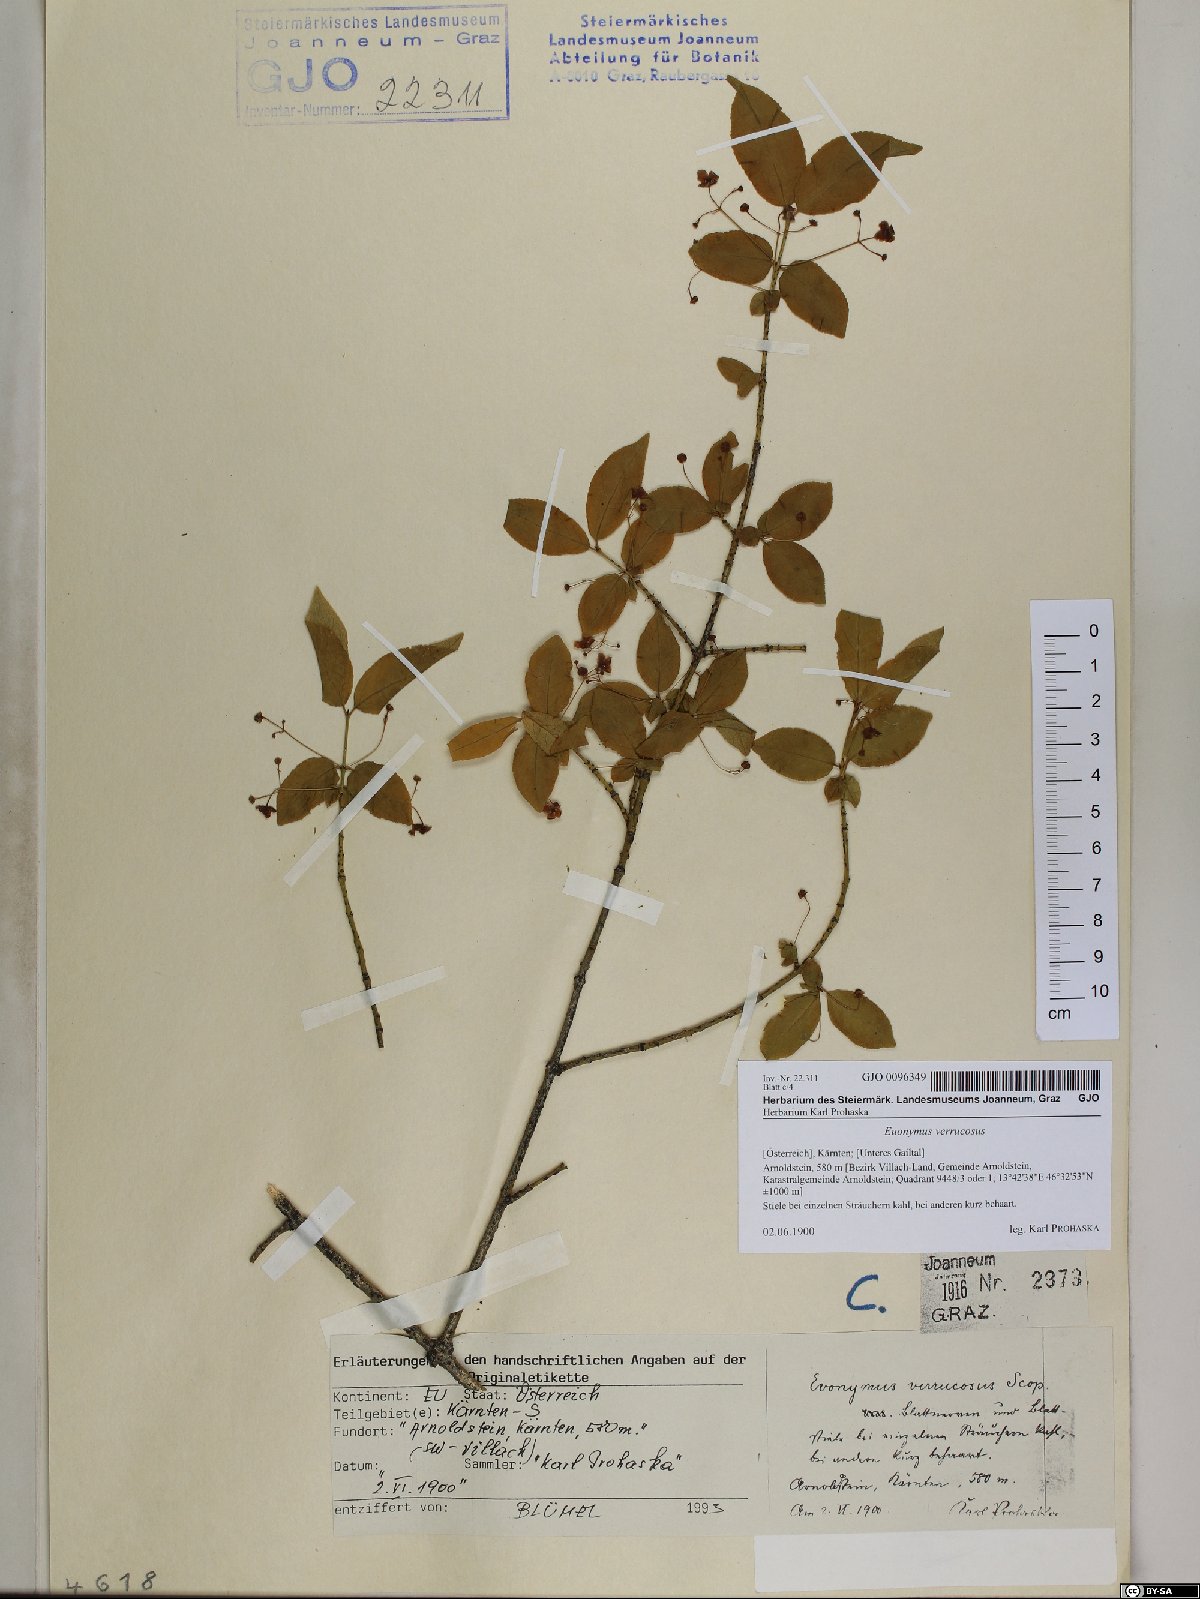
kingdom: Plantae
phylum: Tracheophyta
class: Magnoliopsida
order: Celastrales
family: Celastraceae
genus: Euonymus
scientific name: Euonymus verrucosus
